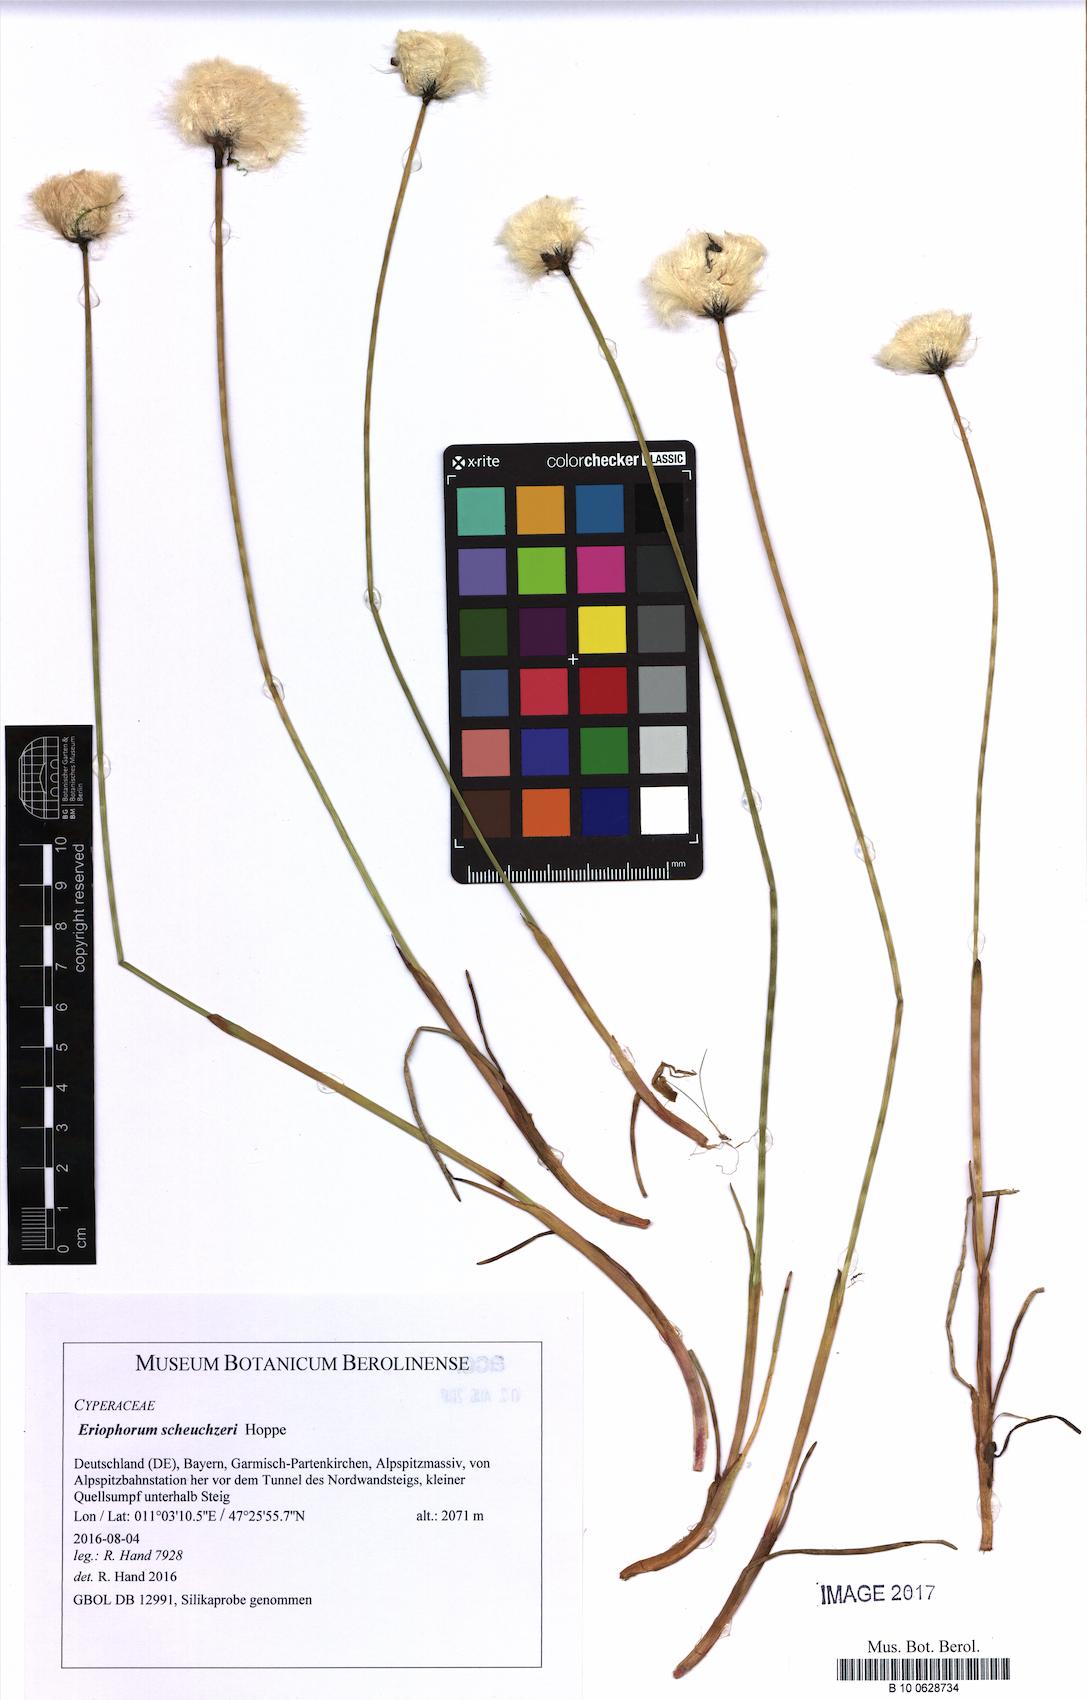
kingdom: Plantae
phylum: Tracheophyta
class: Liliopsida
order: Poales
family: Cyperaceae
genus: Eriophorum
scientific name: Eriophorum scheuchzeri
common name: Scheuchzer's cottongrass
